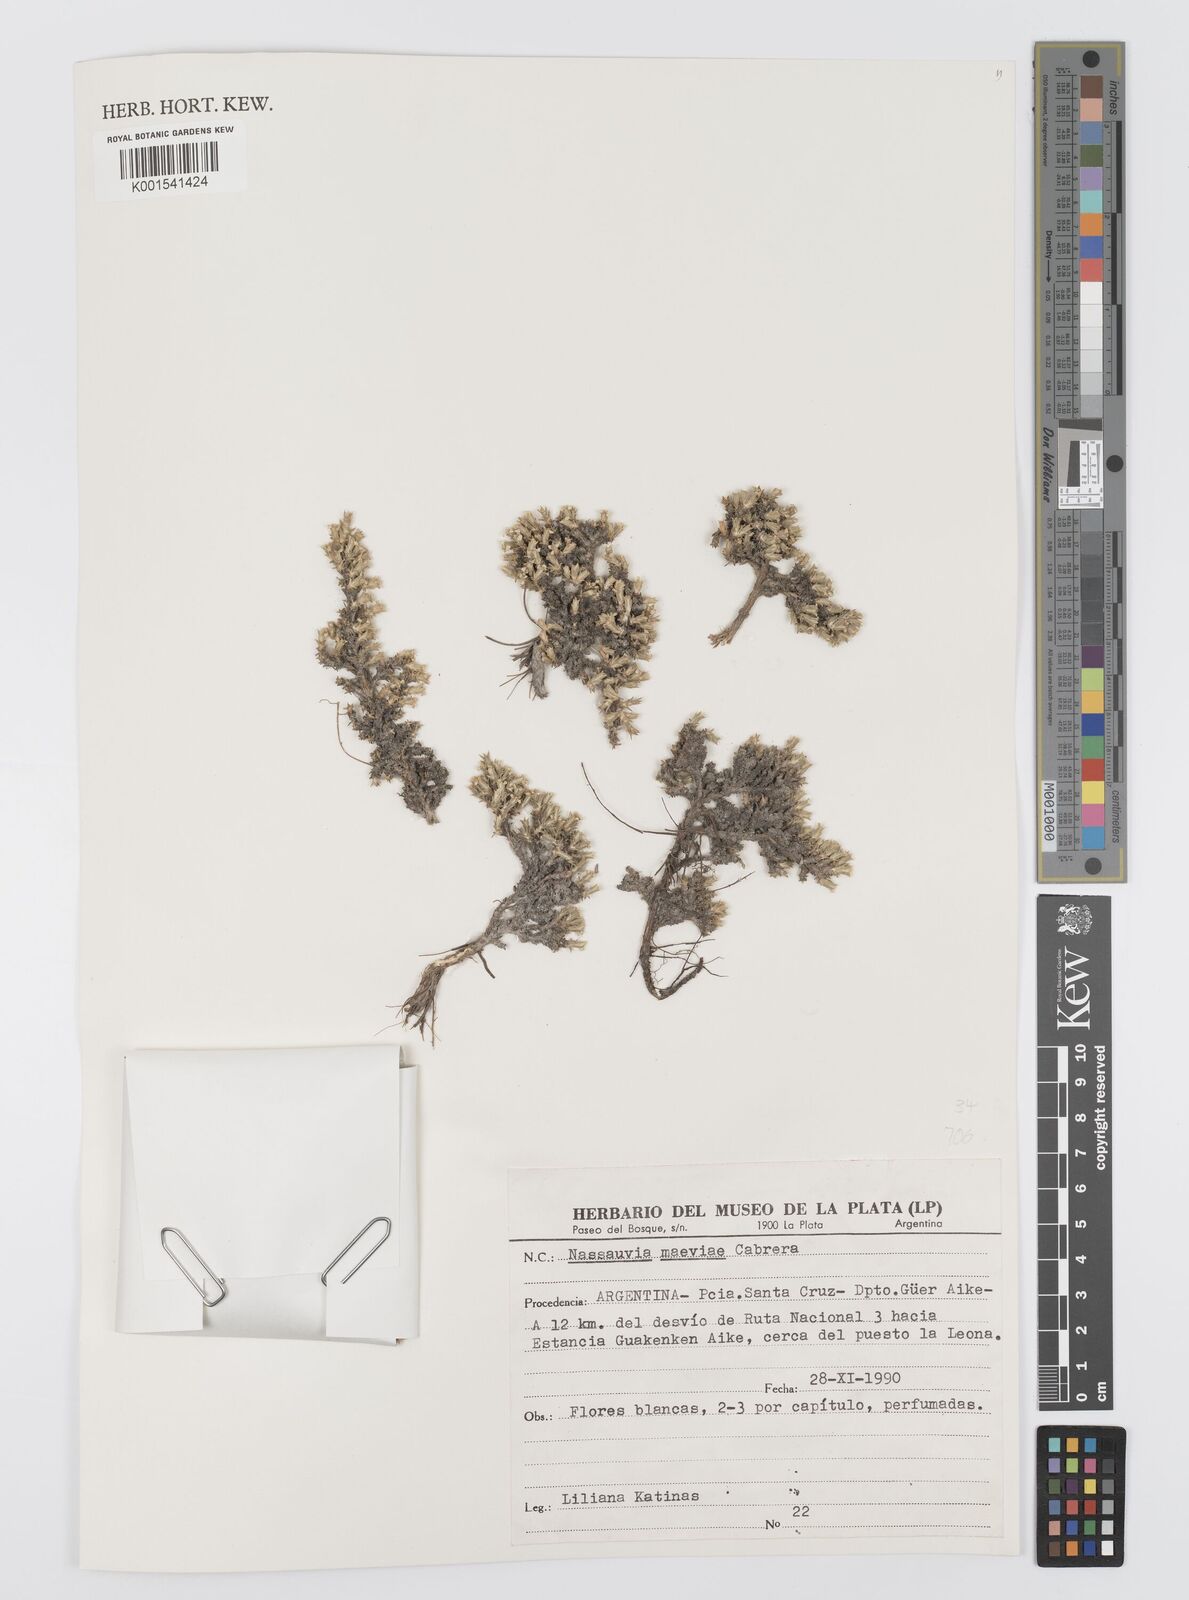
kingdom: Plantae
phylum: Tracheophyta
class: Magnoliopsida
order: Asterales
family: Asteraceae
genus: Nassauvia
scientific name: Nassauvia glomerulosa
